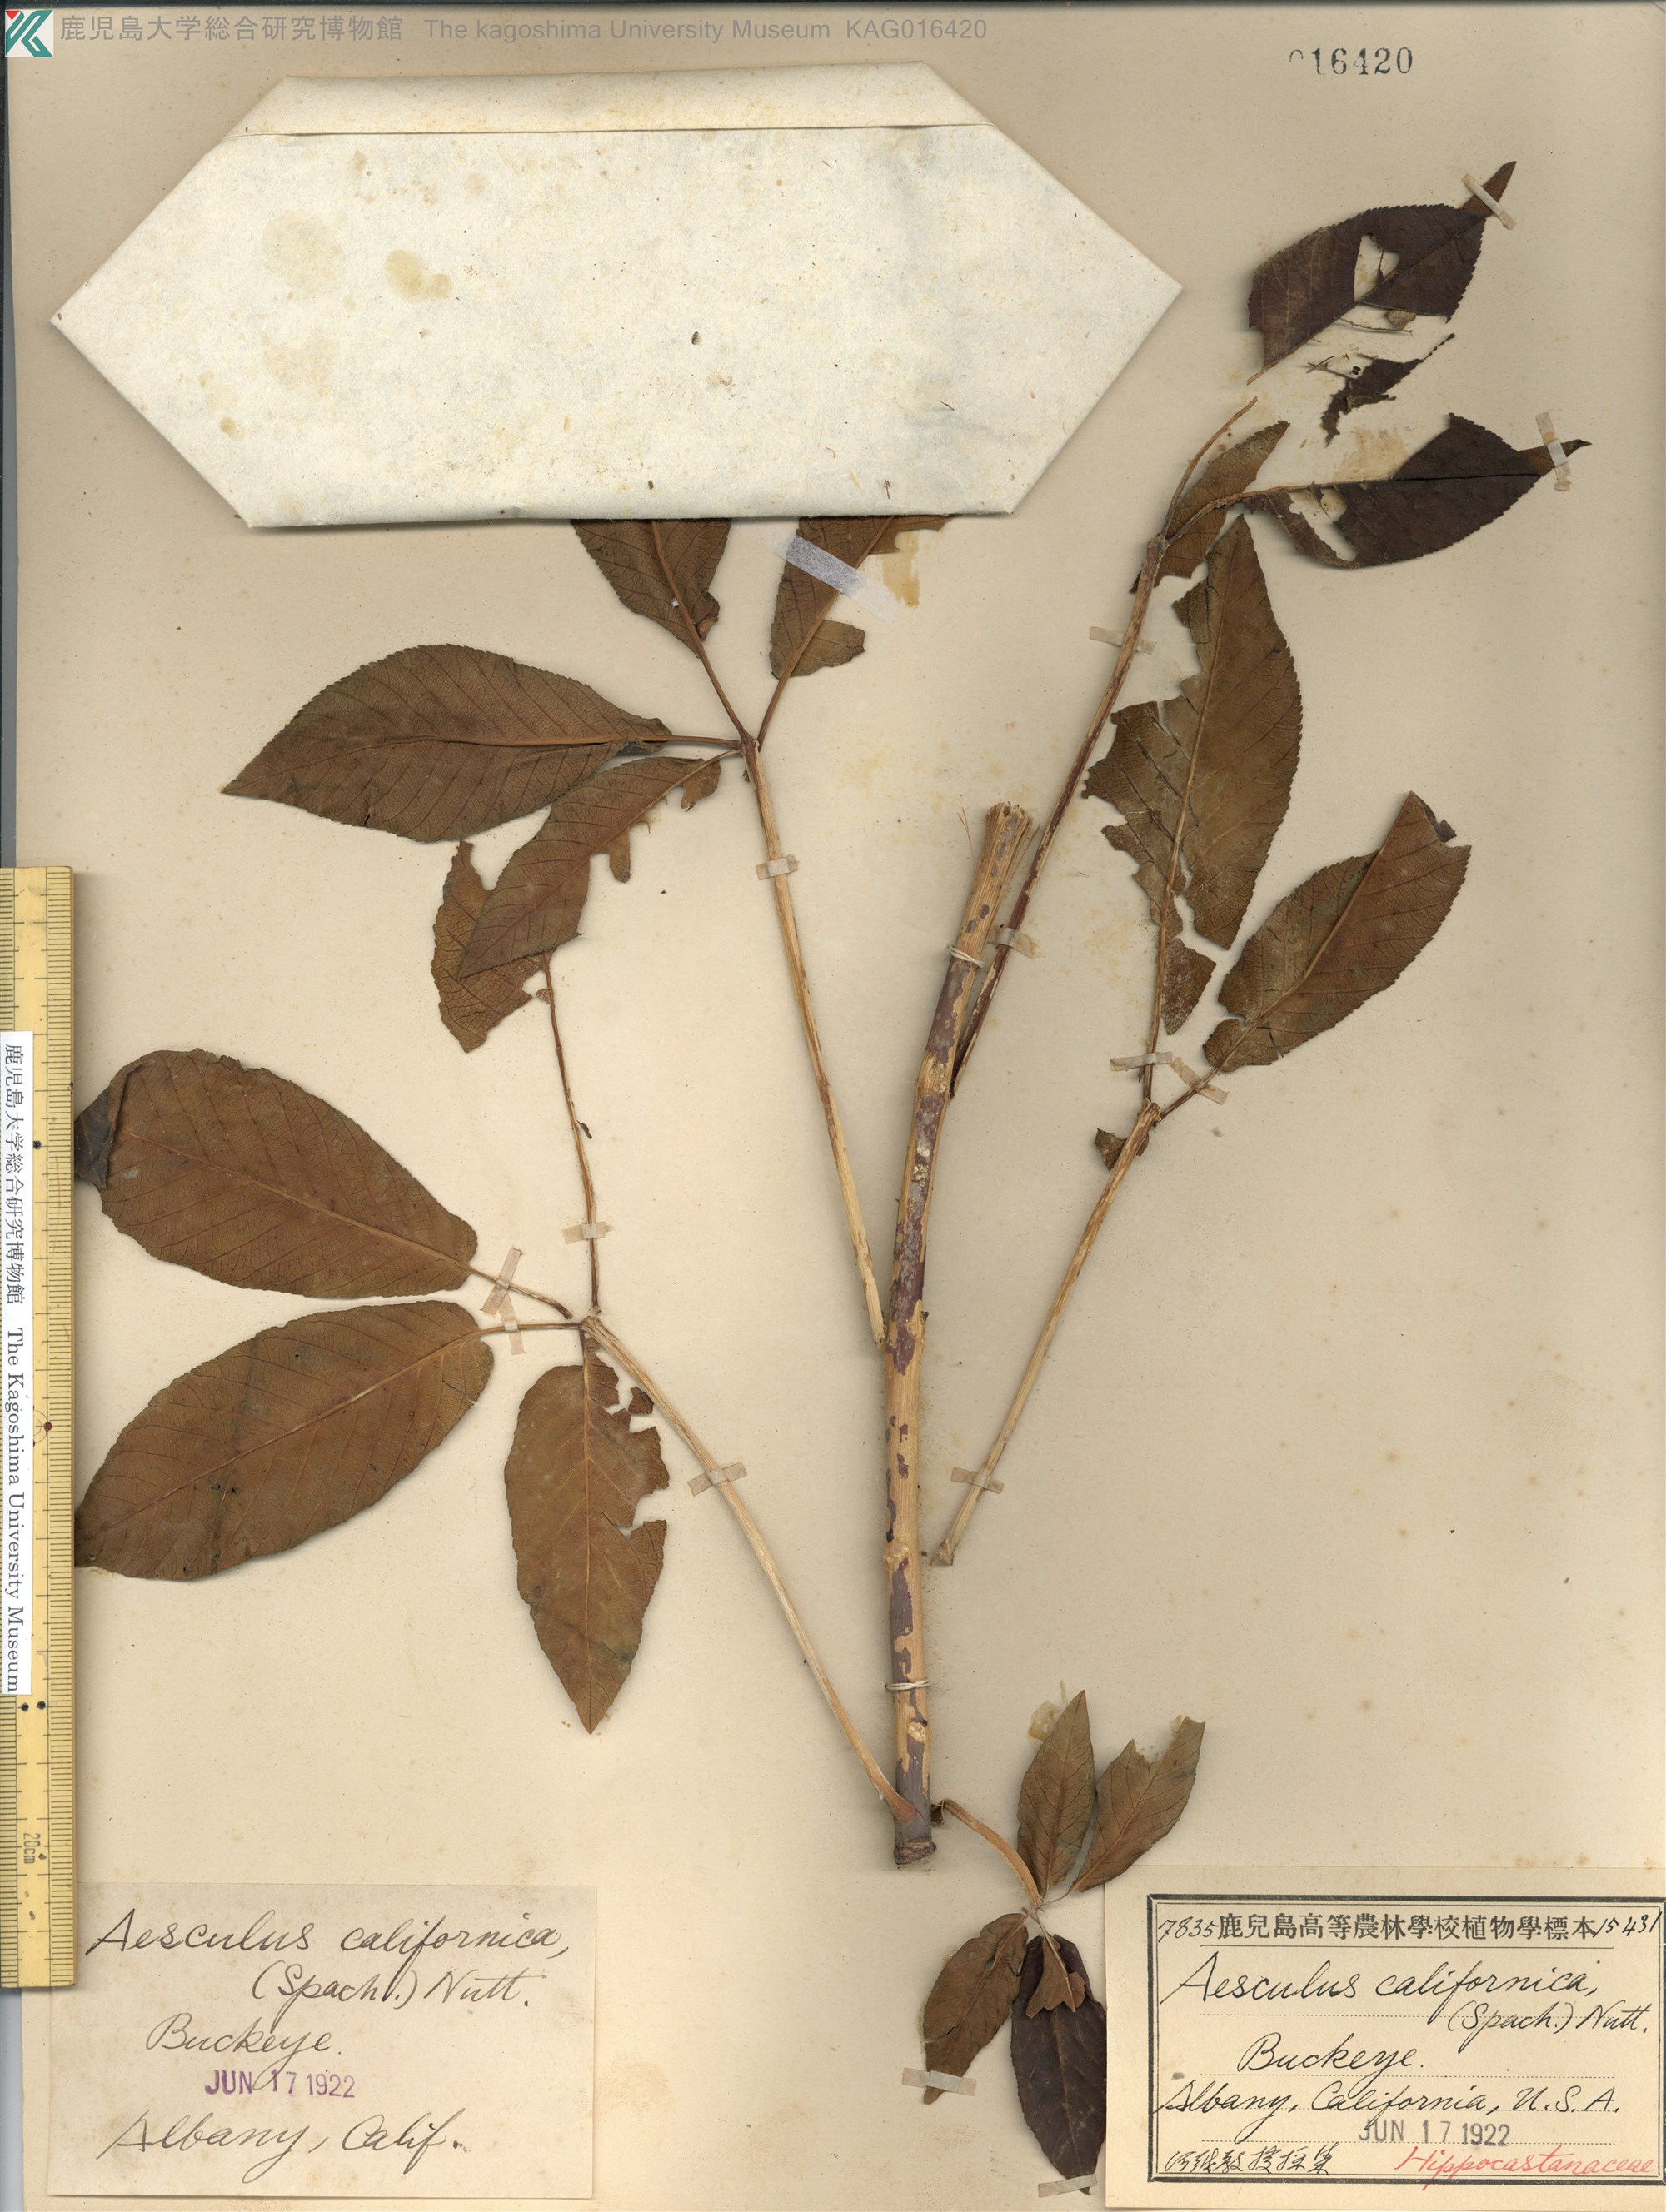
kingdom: Plantae
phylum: Tracheophyta
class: Magnoliopsida
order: Sapindales
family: Sapindaceae
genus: Aesculus
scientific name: Aesculus californica
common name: California buckeye
